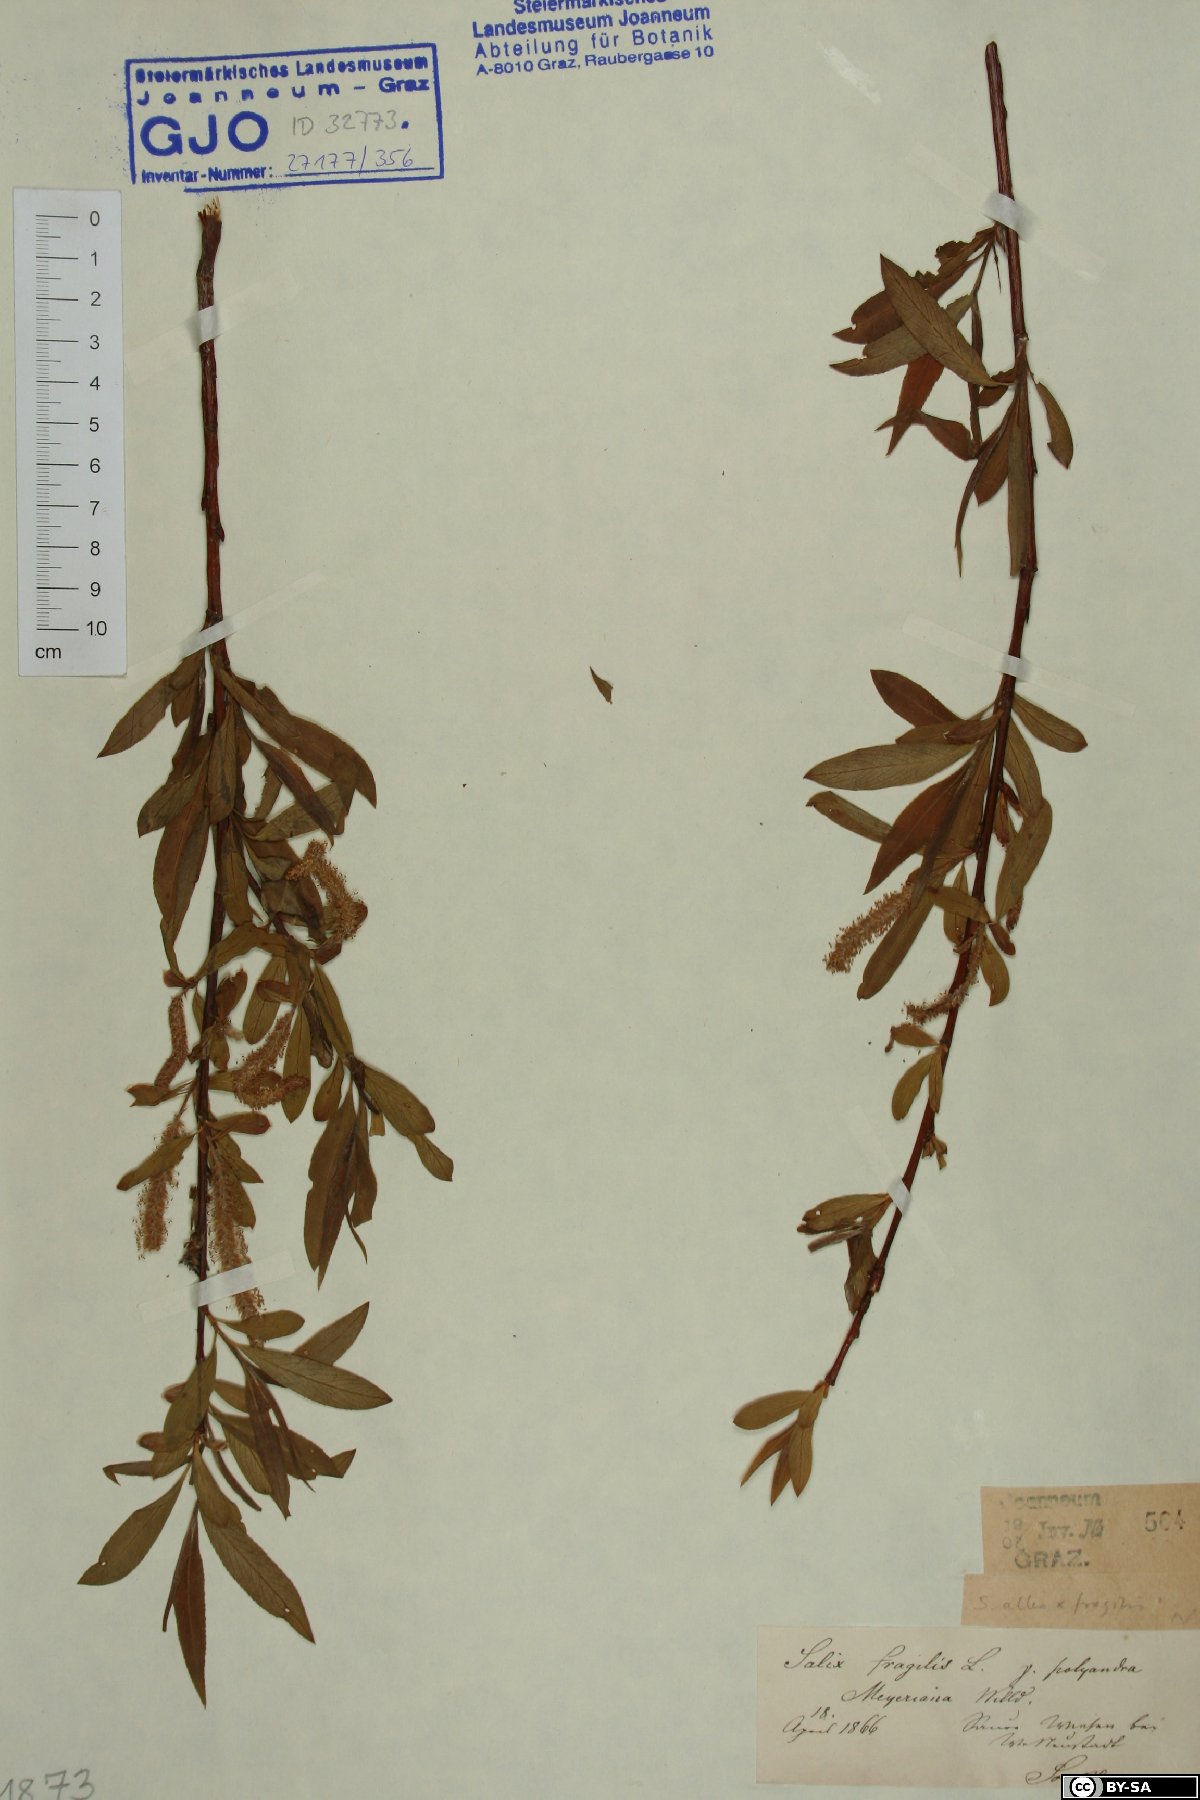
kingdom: Plantae
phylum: Tracheophyta
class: Magnoliopsida
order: Malpighiales
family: Salicaceae
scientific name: Salicaceae
